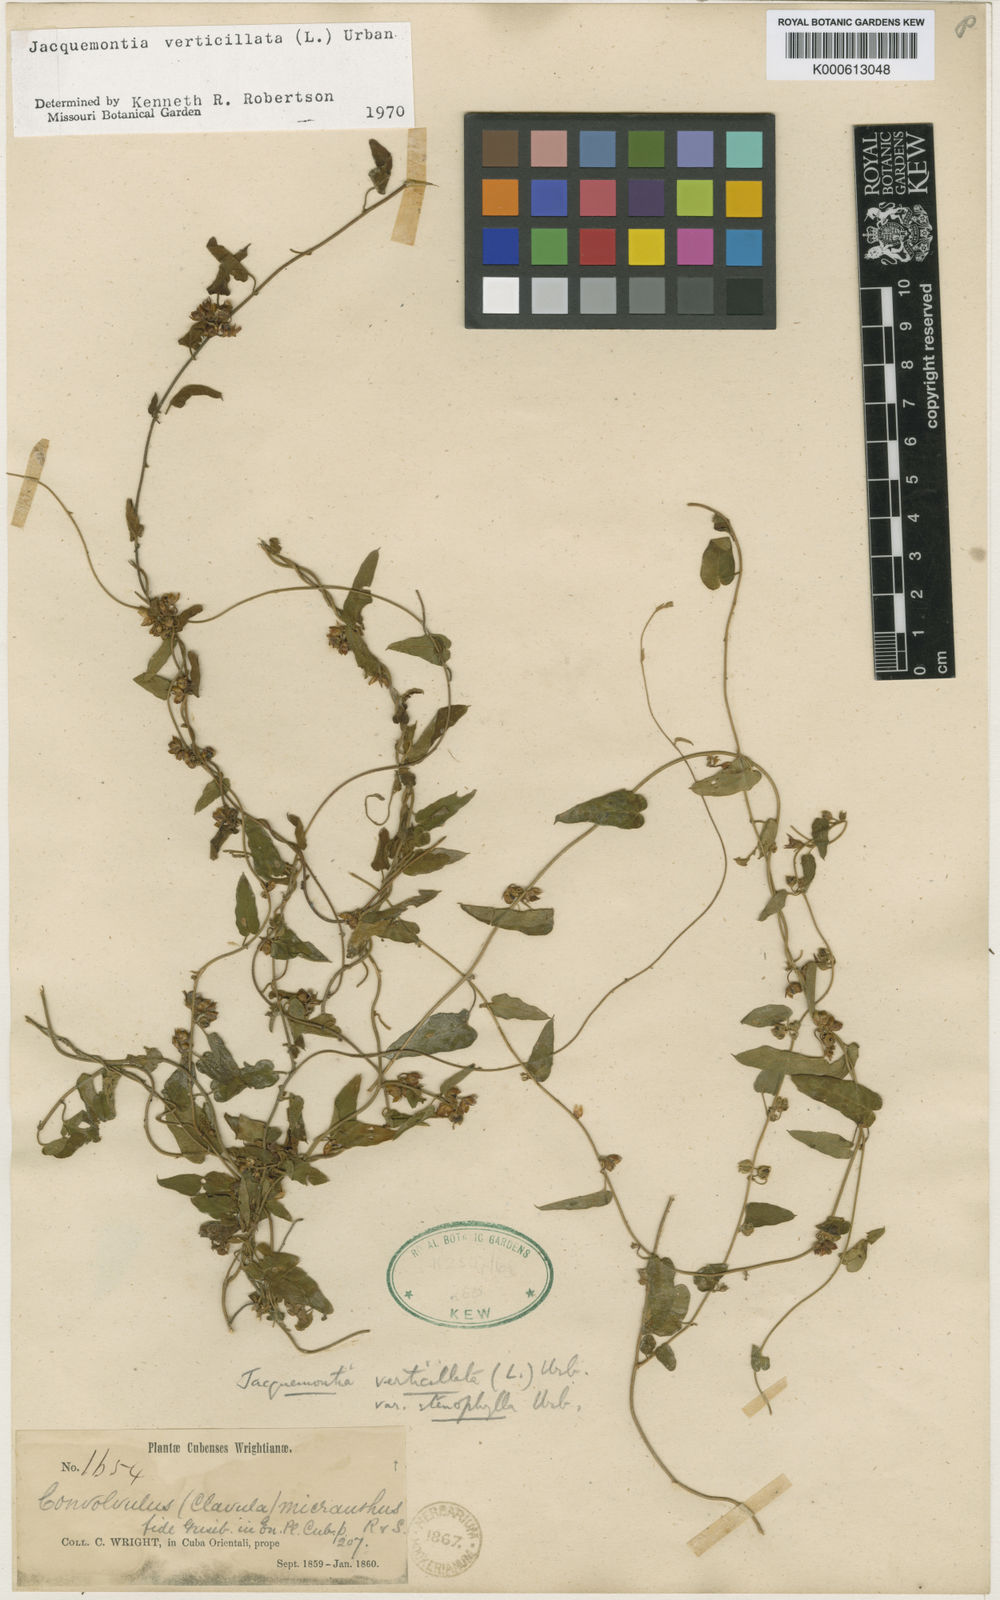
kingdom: Plantae
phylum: Tracheophyta
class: Magnoliopsida
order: Solanales
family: Convolvulaceae
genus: Jacquemontia
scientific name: Jacquemontia verticillata
